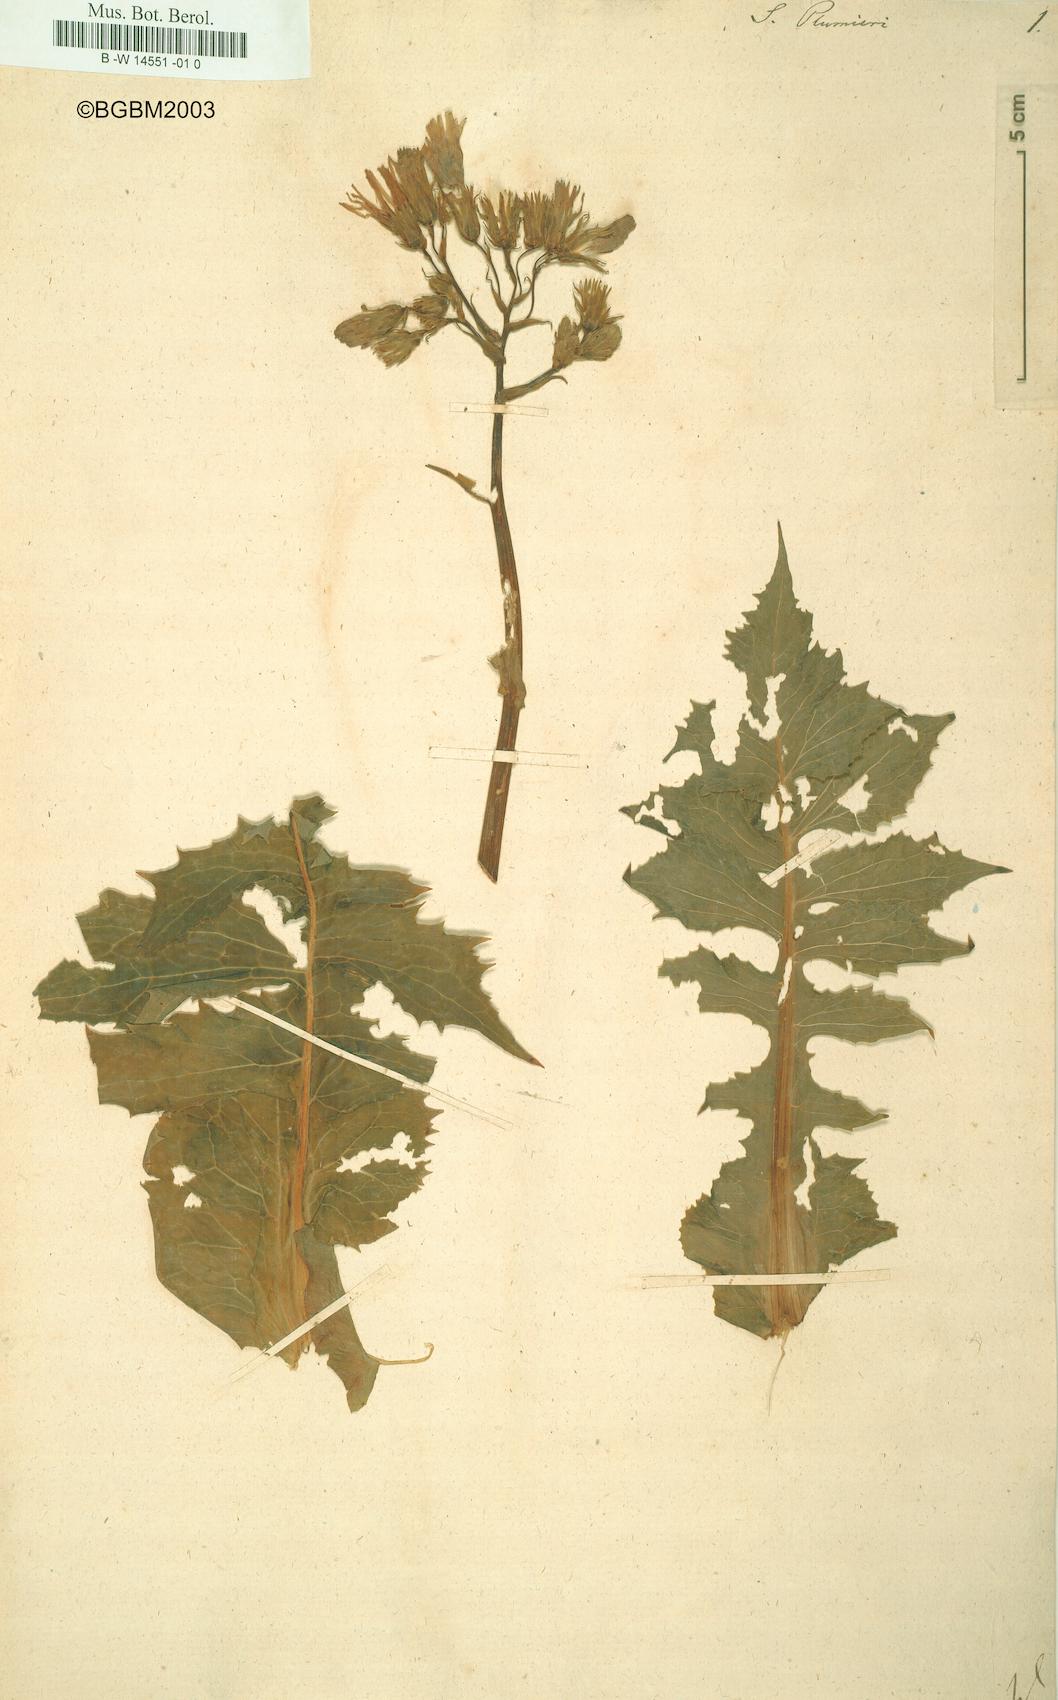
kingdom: Plantae
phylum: Tracheophyta
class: Magnoliopsida
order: Asterales
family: Asteraceae
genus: Sonchus
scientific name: Sonchus plumieri
